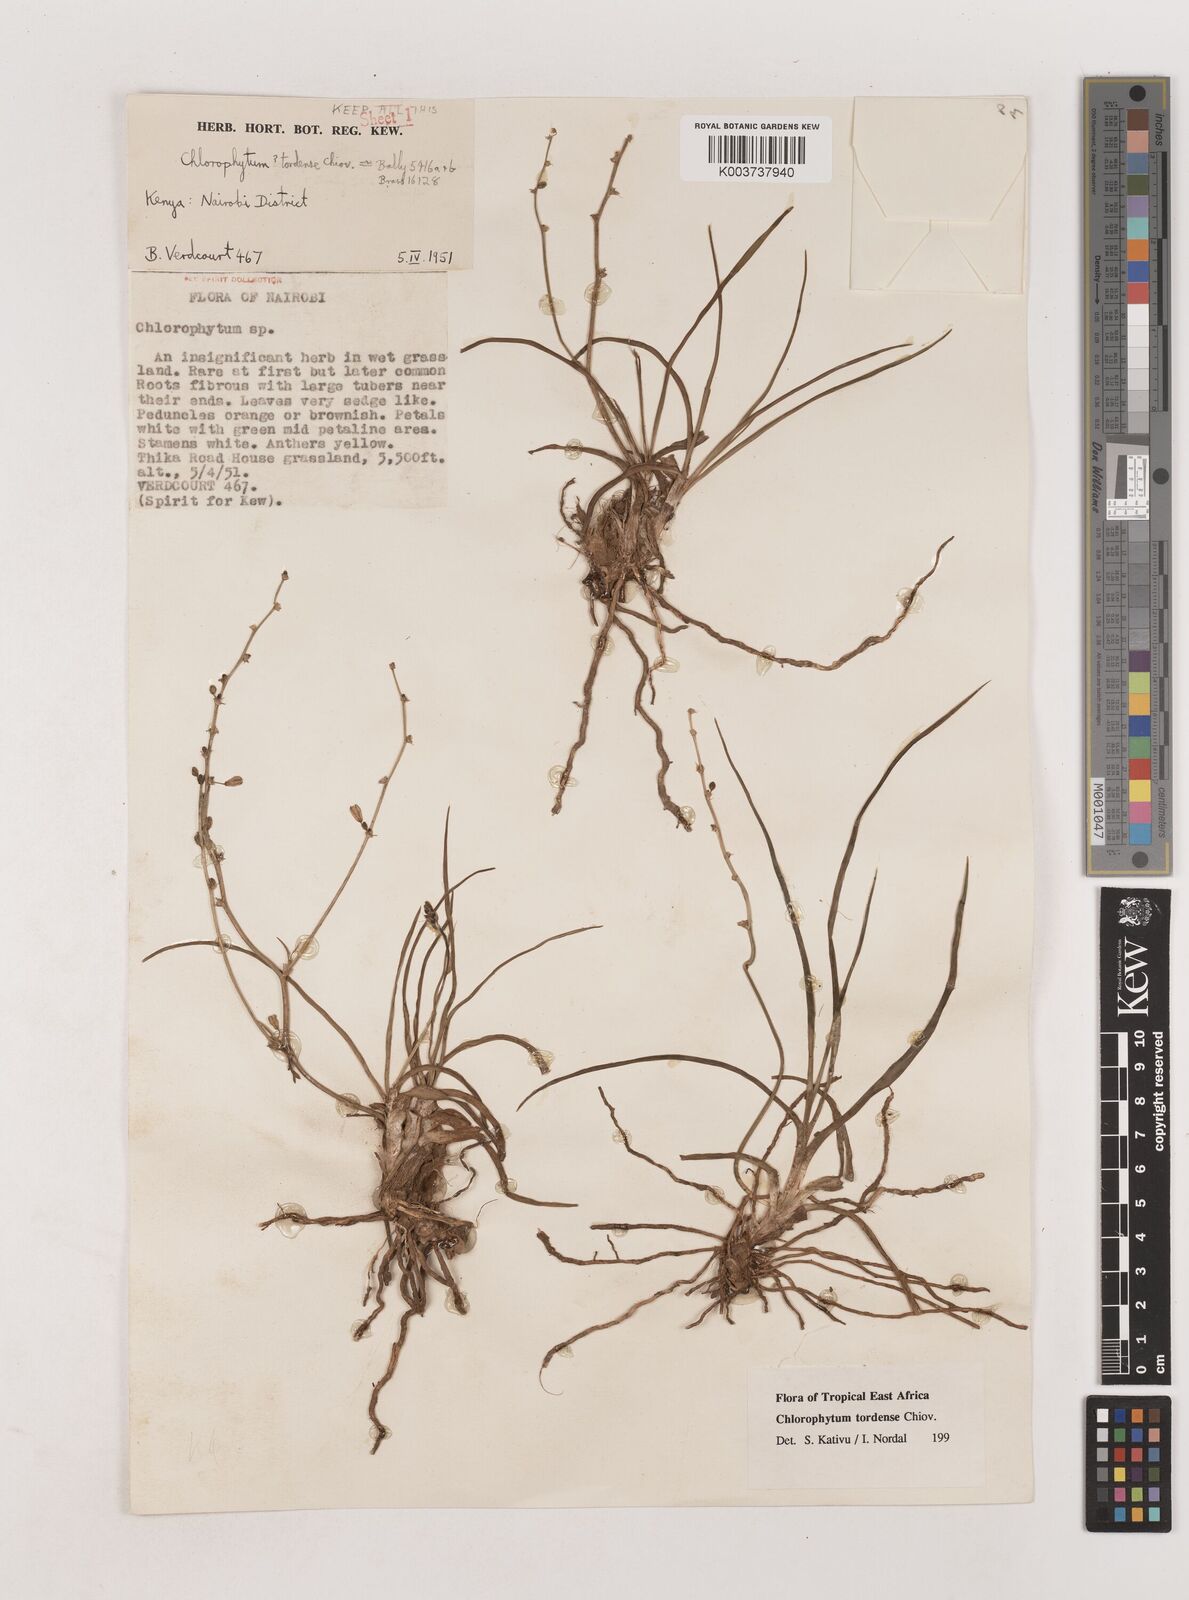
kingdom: Plantae
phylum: Tracheophyta
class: Liliopsida
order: Asparagales
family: Asparagaceae
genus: Chlorophytum
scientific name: Chlorophytum tordense
